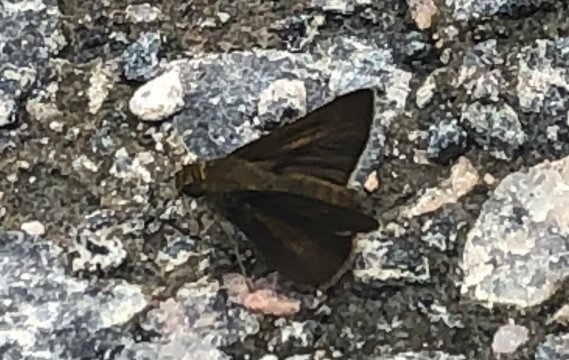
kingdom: Animalia
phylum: Arthropoda
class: Insecta
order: Lepidoptera
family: Hesperiidae
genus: Euphyes
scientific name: Euphyes vestris
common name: Dun Skipper
